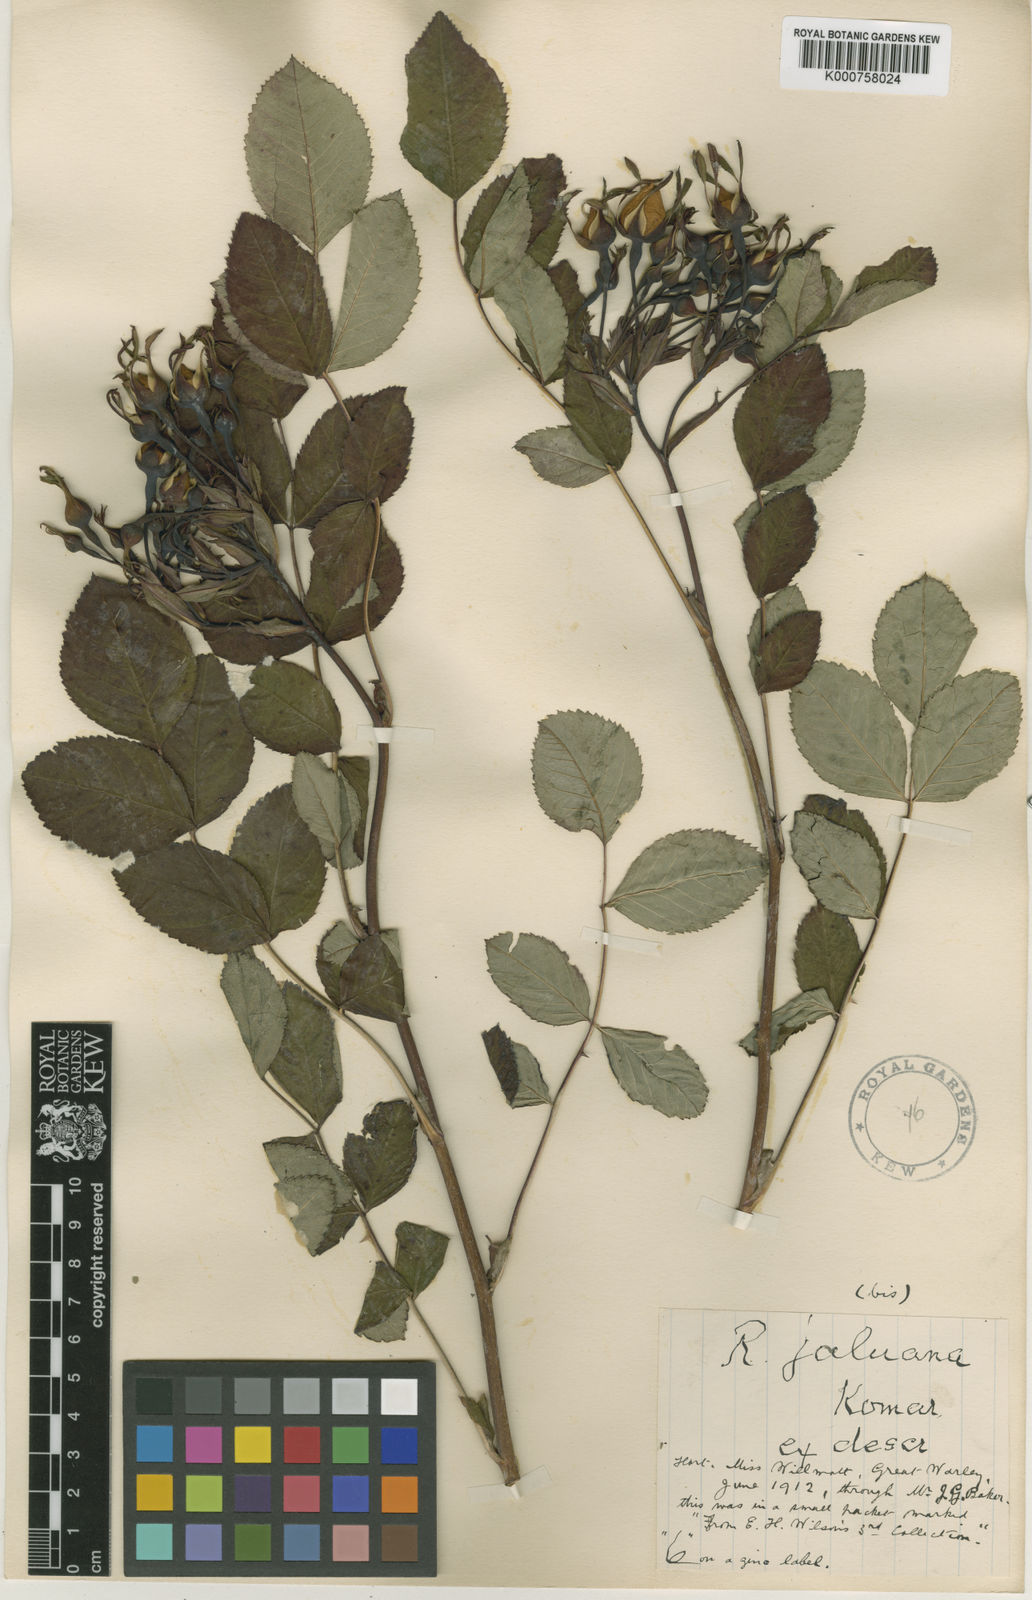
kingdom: Plantae
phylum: Tracheophyta
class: Magnoliopsida
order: Rosales
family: Rosaceae
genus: Rosa
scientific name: Rosa maximowicziana
